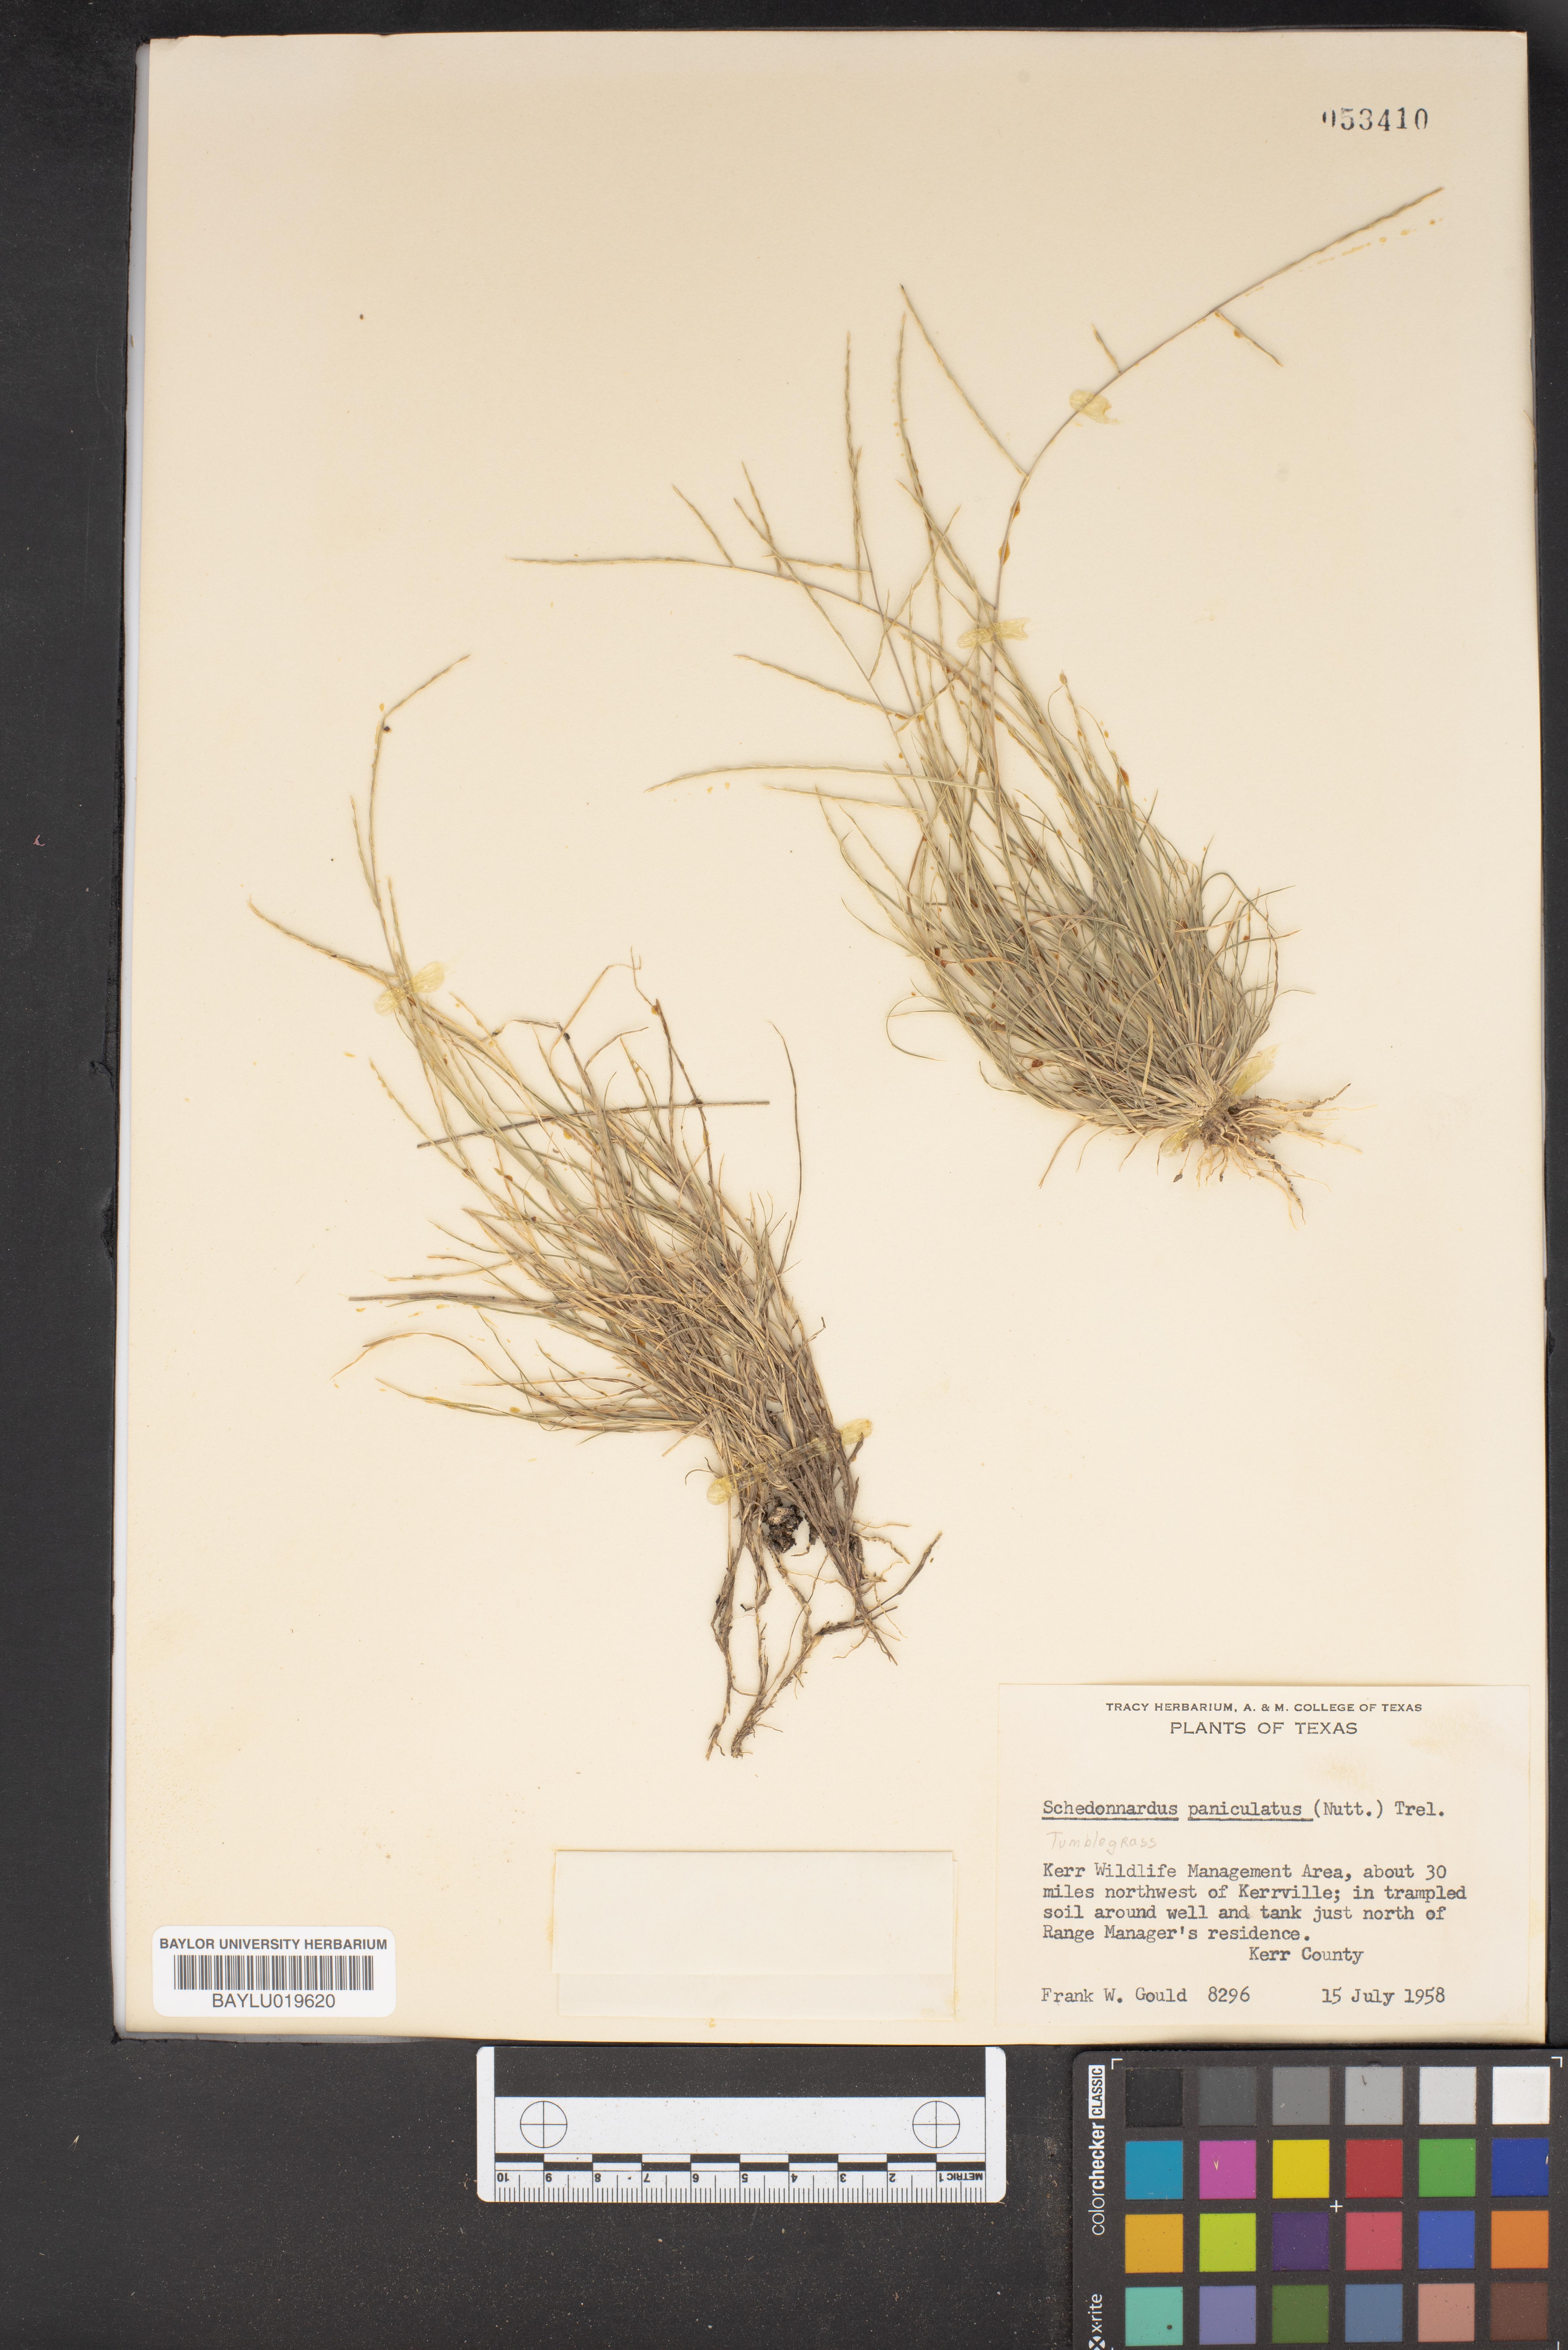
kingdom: Plantae
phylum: Tracheophyta
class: Liliopsida
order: Poales
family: Poaceae
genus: Muhlenbergia
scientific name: Muhlenbergia paniculata
